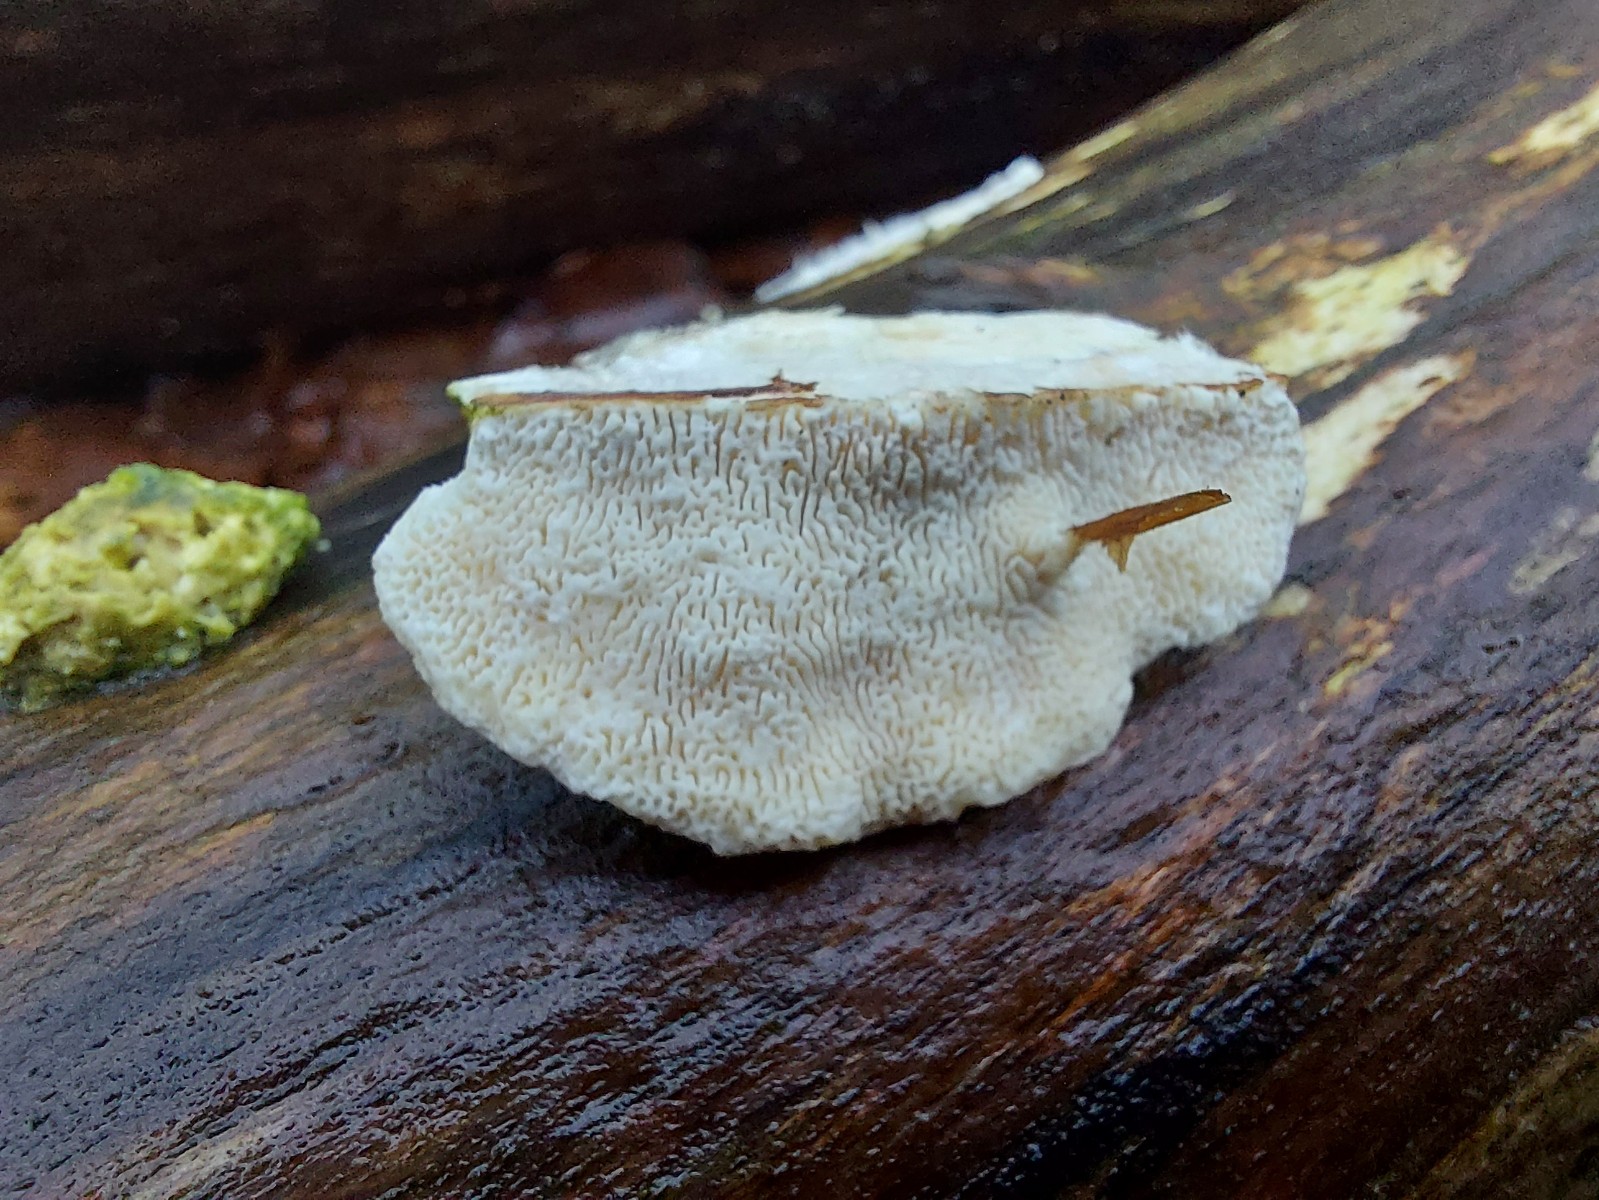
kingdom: Fungi
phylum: Basidiomycota
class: Agaricomycetes
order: Polyporales
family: Polyporaceae
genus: Trametes
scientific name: Trametes gibbosa
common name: puklet læderporesvamp
